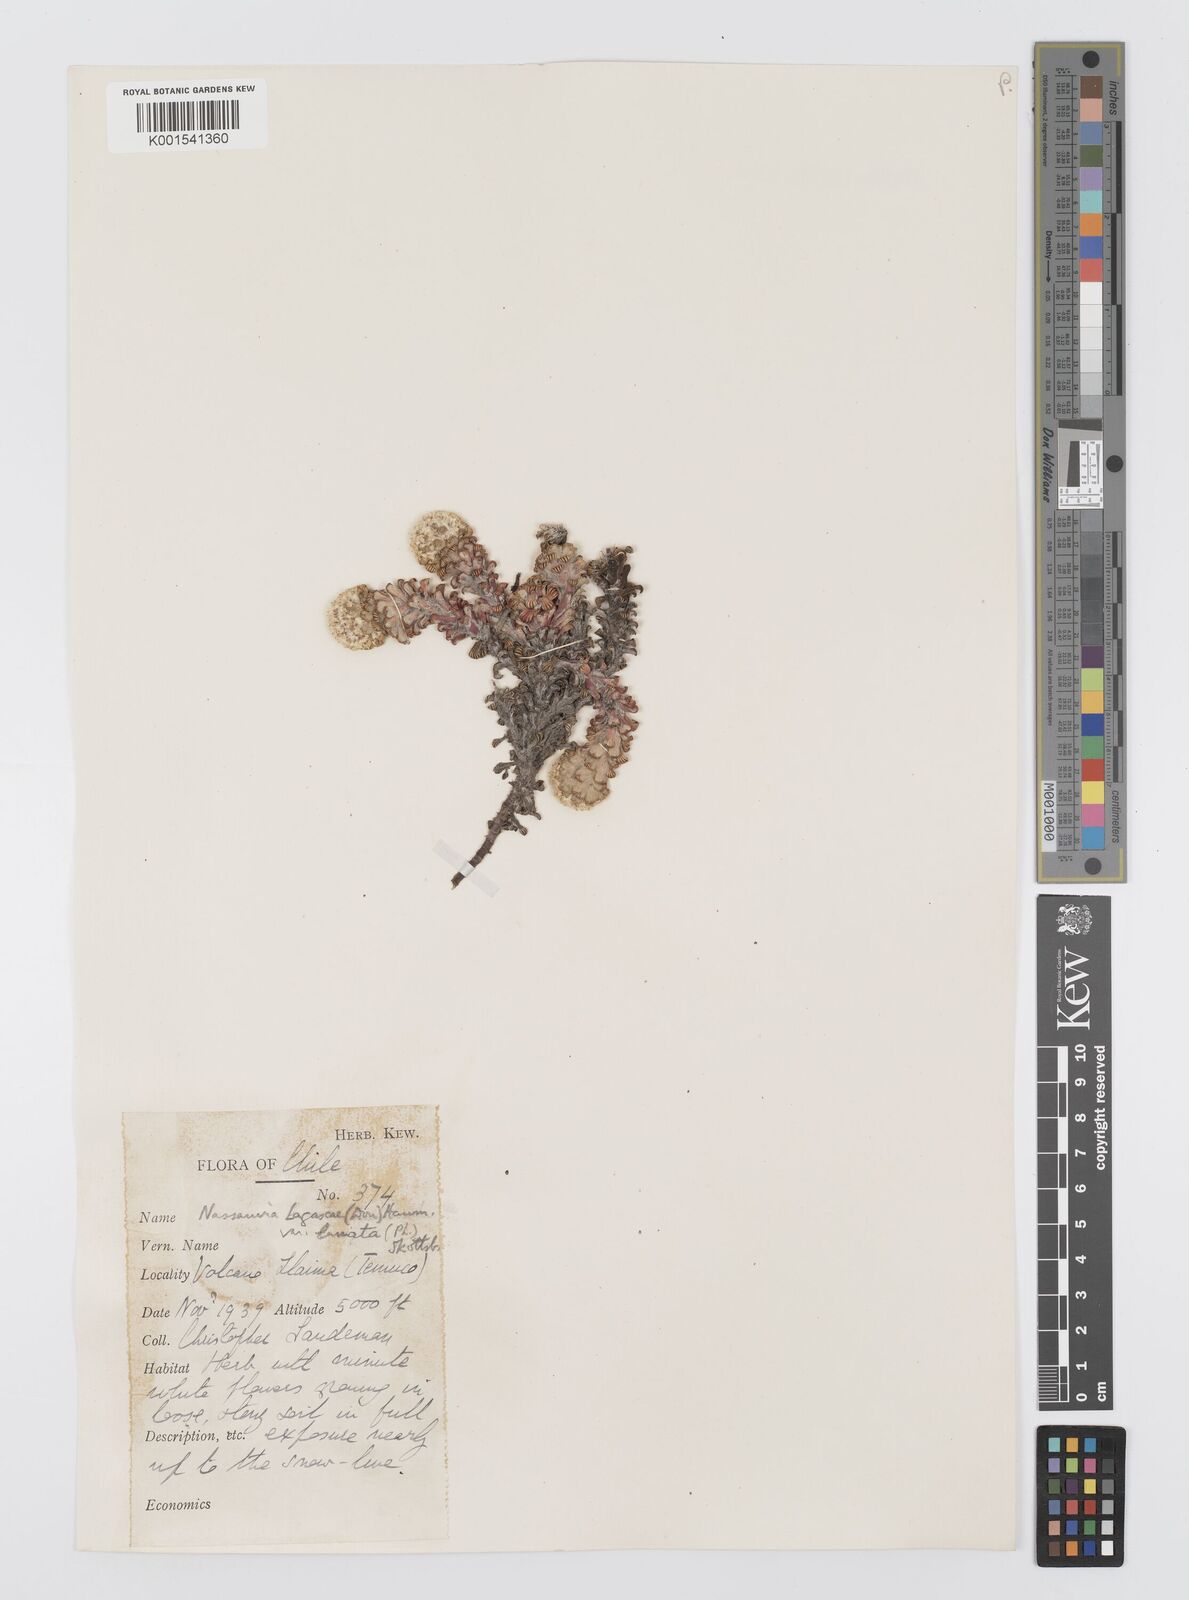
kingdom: Plantae
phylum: Tracheophyta
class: Magnoliopsida
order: Asterales
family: Asteraceae
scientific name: Asteraceae
